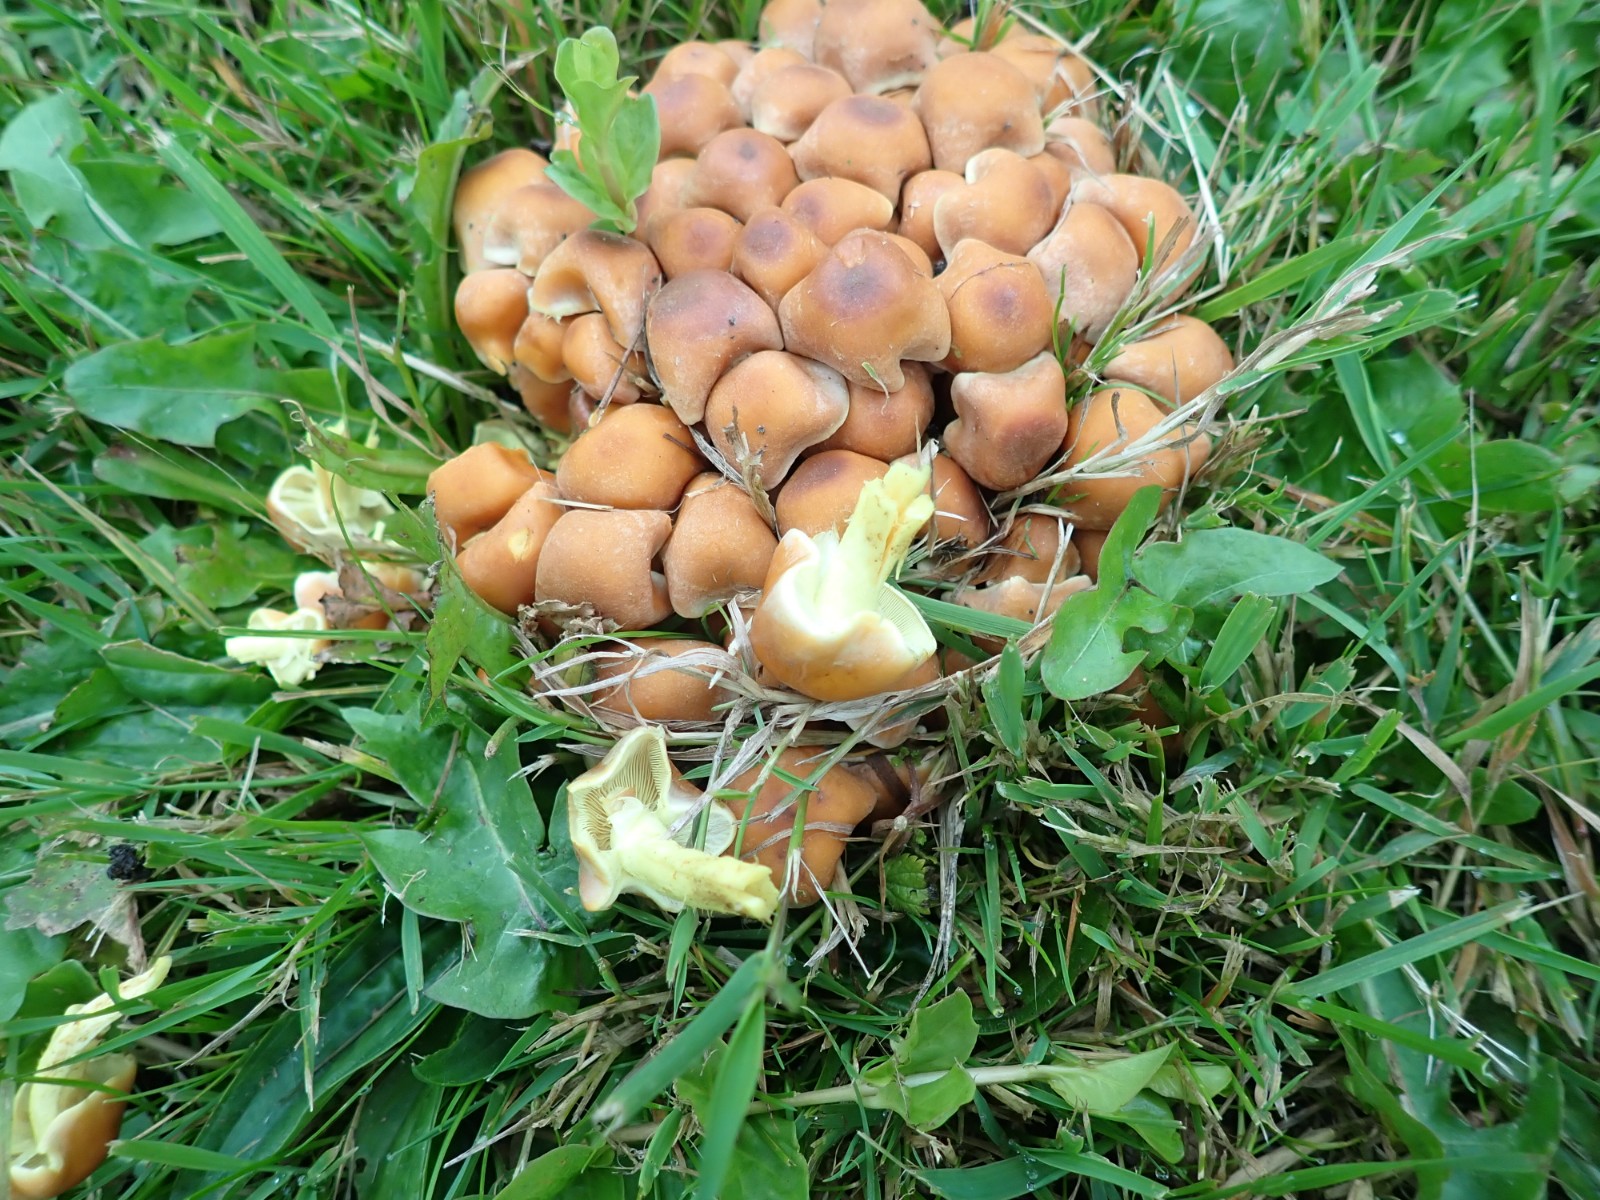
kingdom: Fungi
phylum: Basidiomycota
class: Agaricomycetes
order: Agaricales
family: Strophariaceae
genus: Hypholoma
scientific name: Hypholoma fasciculare
